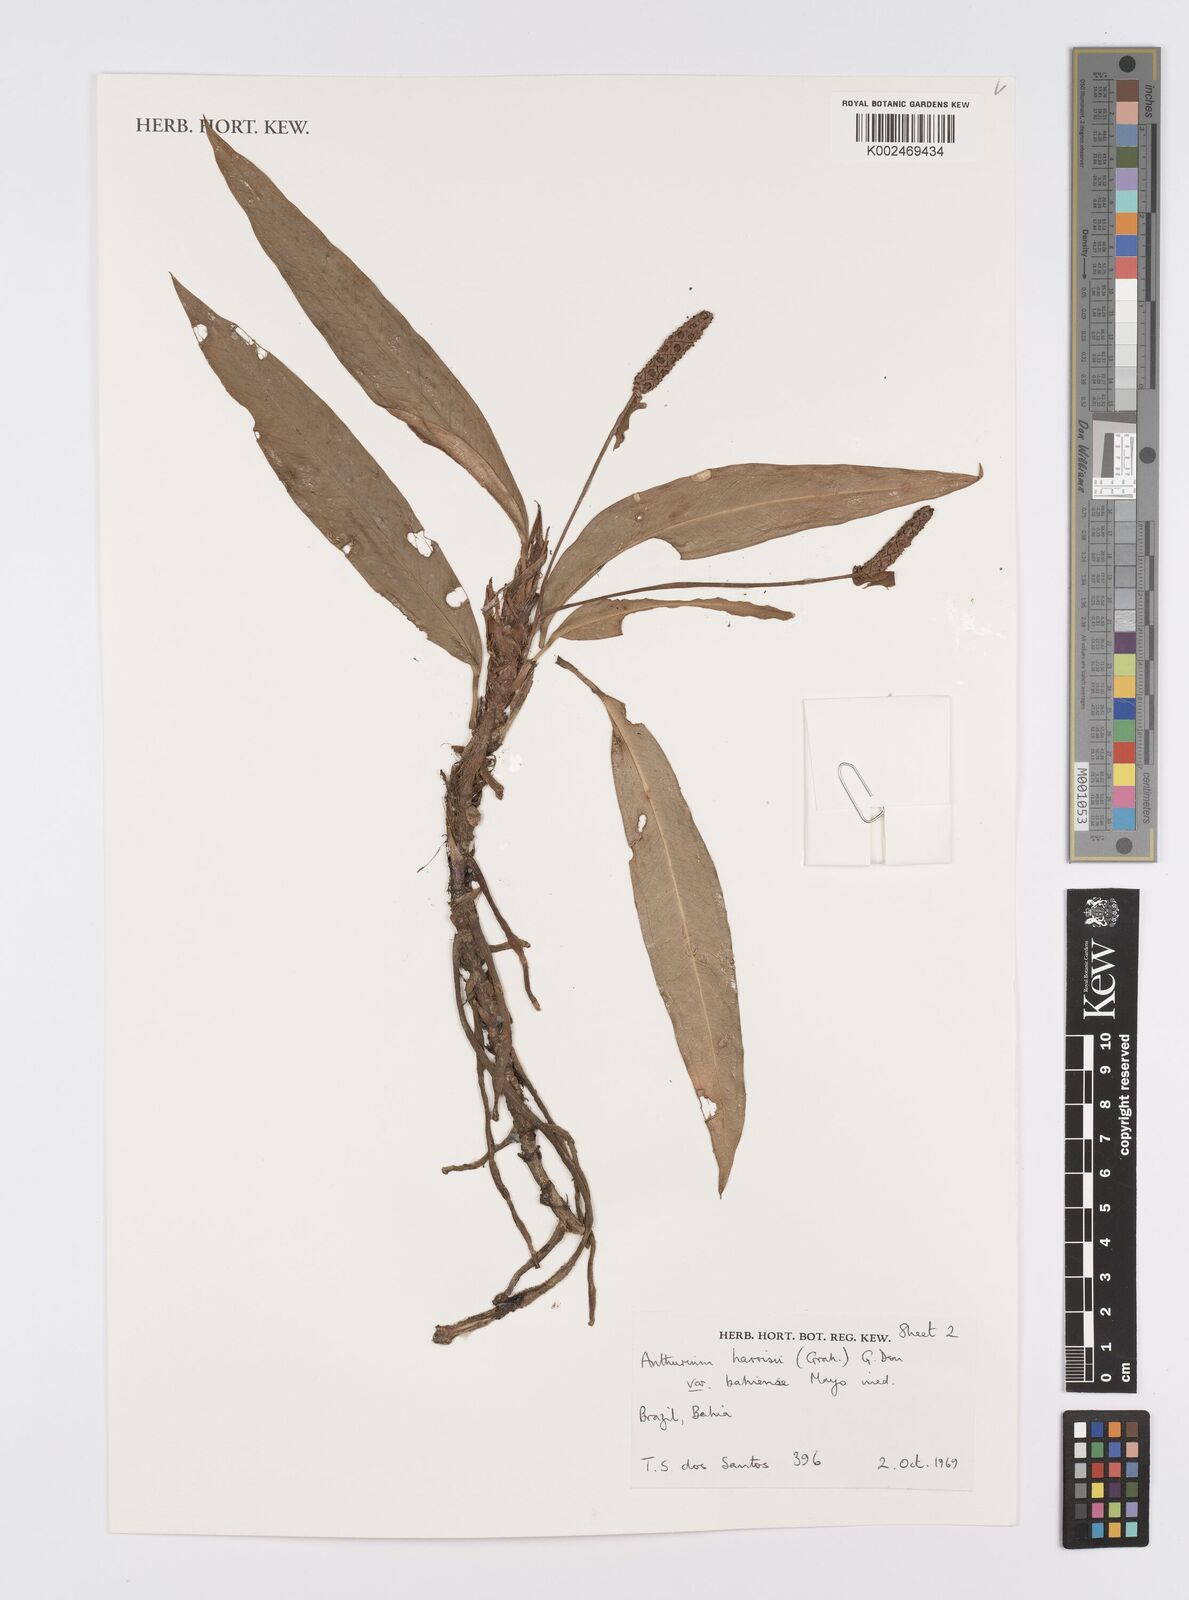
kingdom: Plantae
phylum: Tracheophyta
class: Liliopsida
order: Alismatales
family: Araceae
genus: Anthurium
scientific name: Anthurium harrisii
